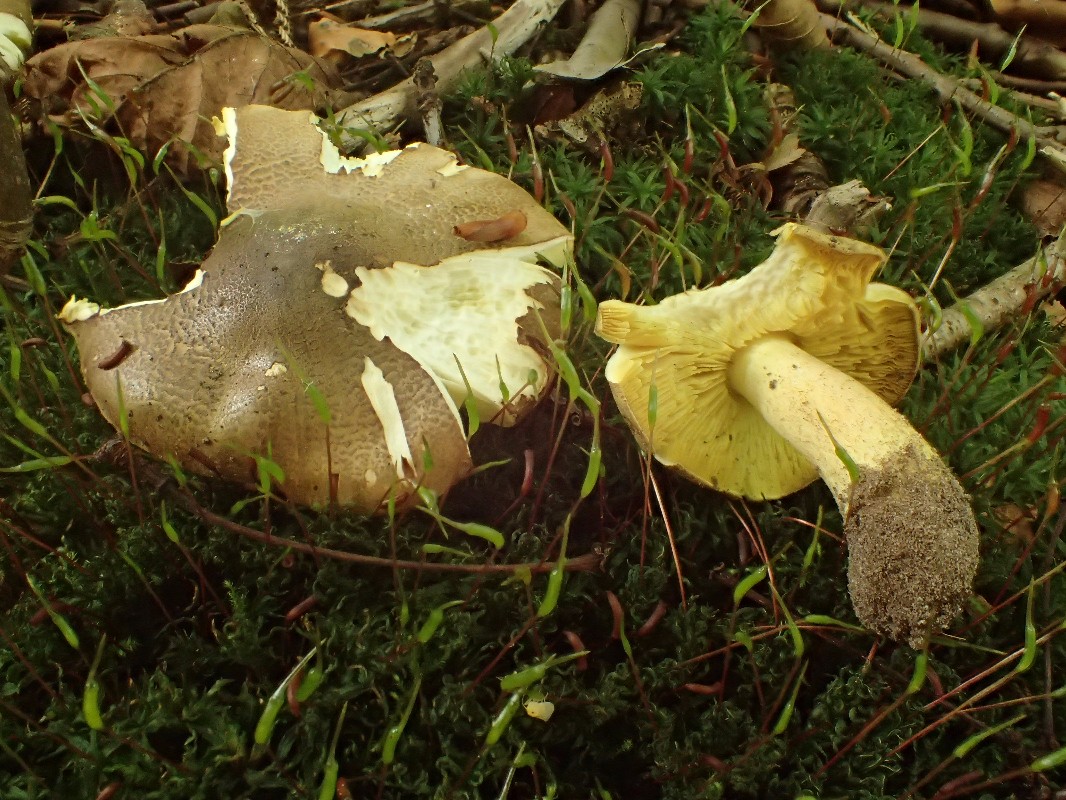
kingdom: Fungi
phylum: Basidiomycota
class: Agaricomycetes
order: Agaricales
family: Tricholomataceae
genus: Tricholoma
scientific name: Tricholoma frondosae
